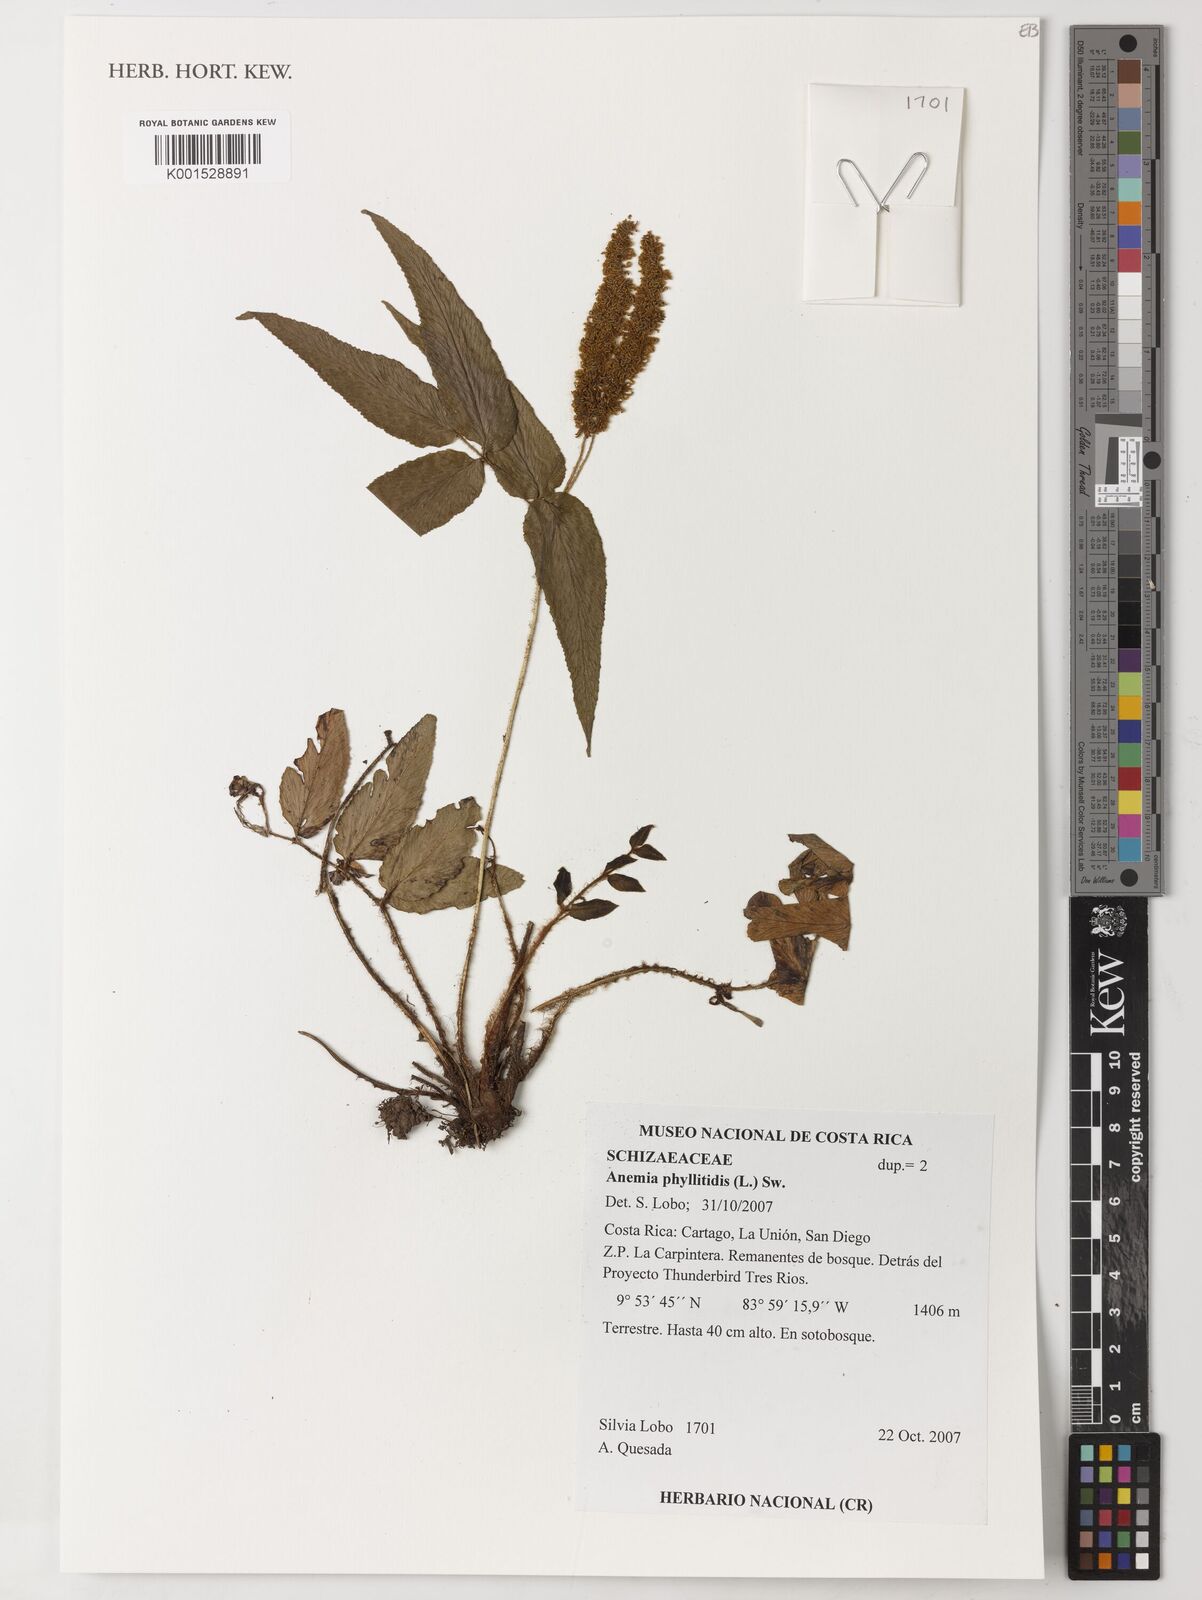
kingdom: Plantae
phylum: Tracheophyta
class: Polypodiopsida
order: Schizaeales
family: Anemiaceae
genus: Anemia
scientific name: Anemia phyllitidis
